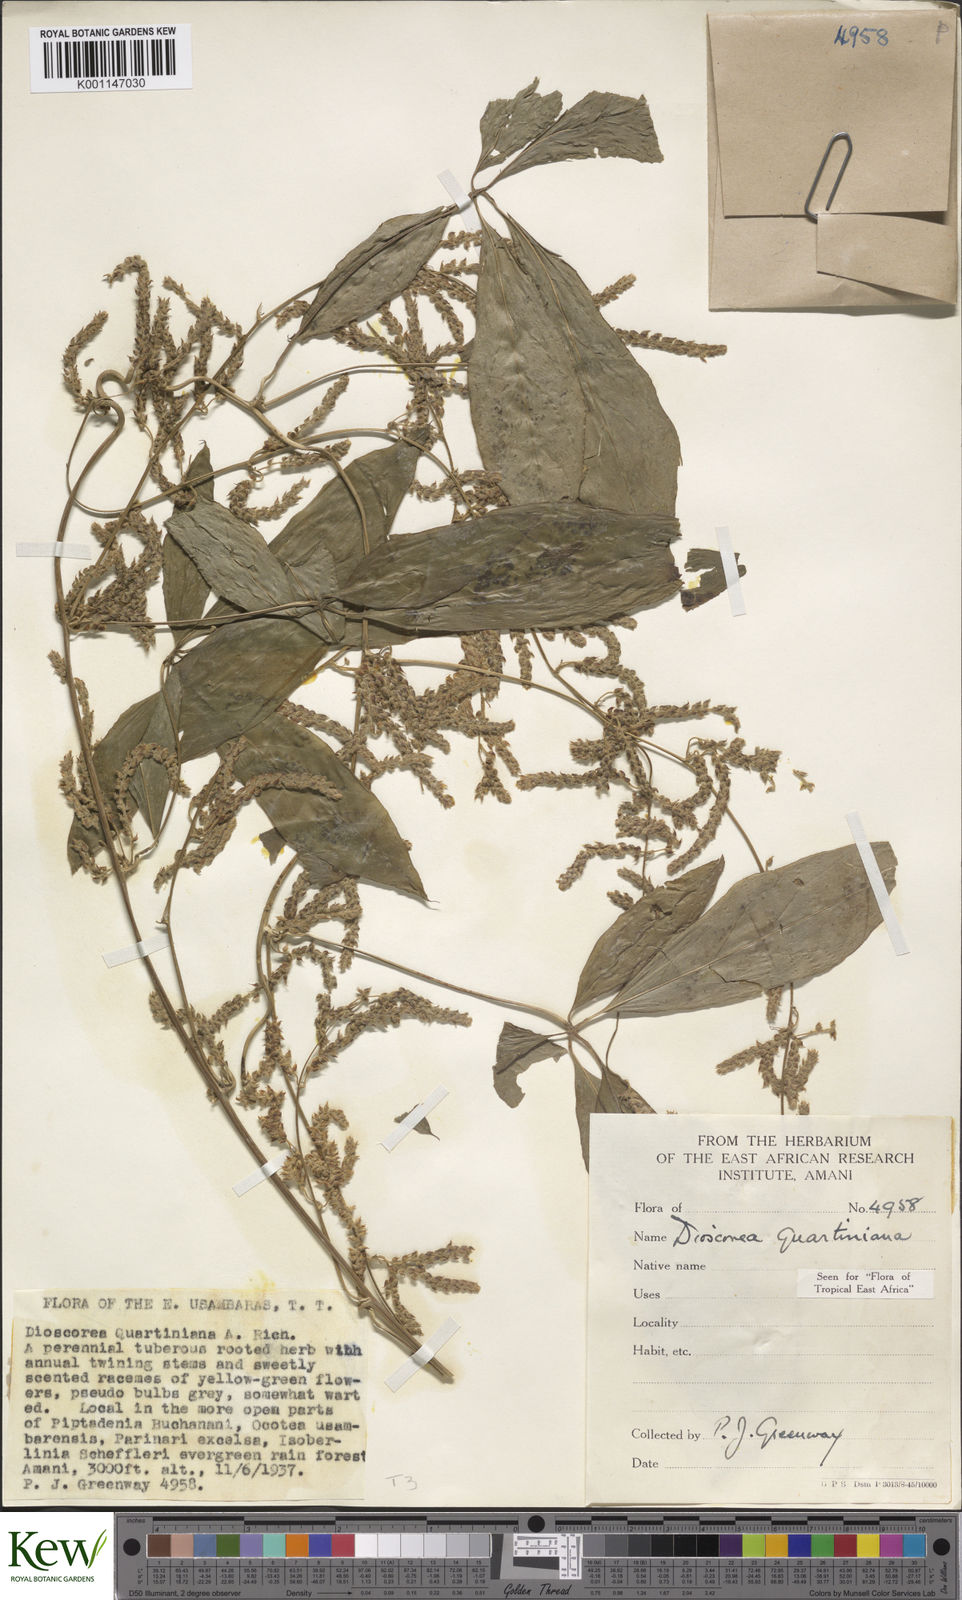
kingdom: Plantae
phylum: Tracheophyta
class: Liliopsida
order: Dioscoreales
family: Dioscoreaceae
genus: Dioscorea
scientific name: Dioscorea quartiniana
